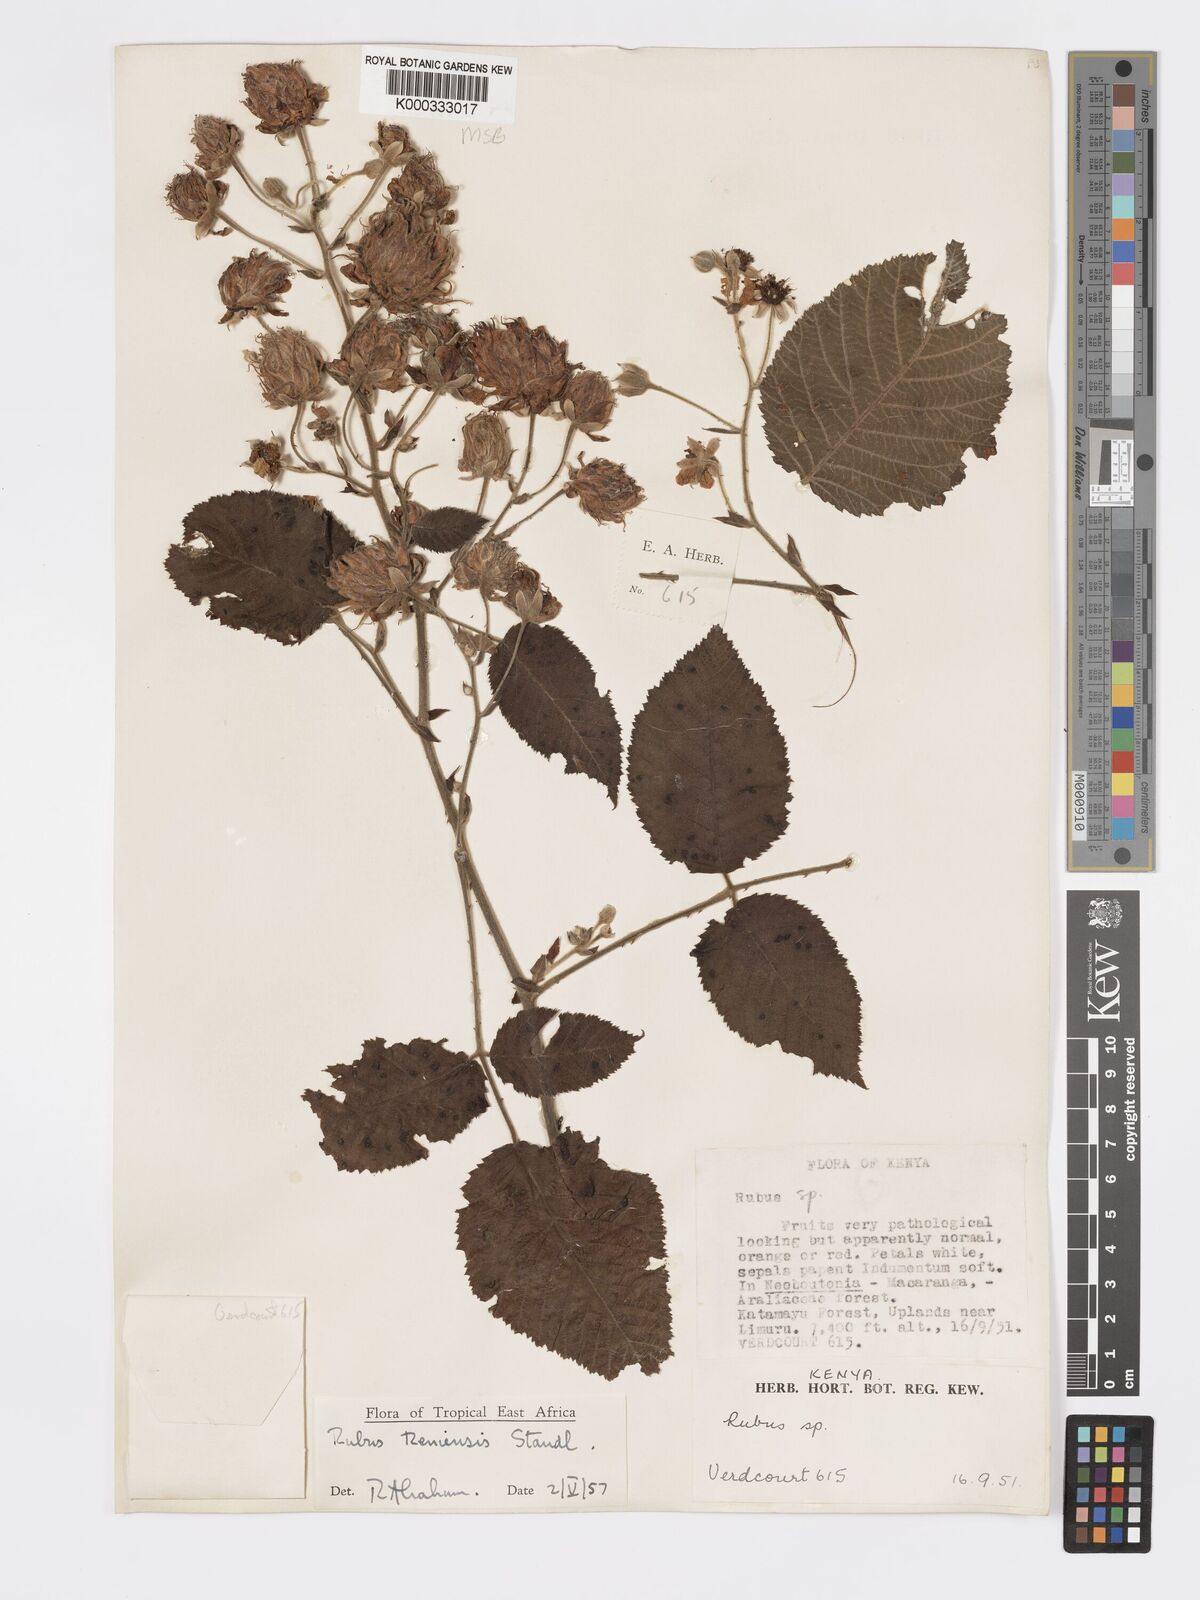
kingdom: Plantae
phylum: Tracheophyta
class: Magnoliopsida
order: Rosales
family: Rosaceae
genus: Rubus
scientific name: Rubus keniensis
